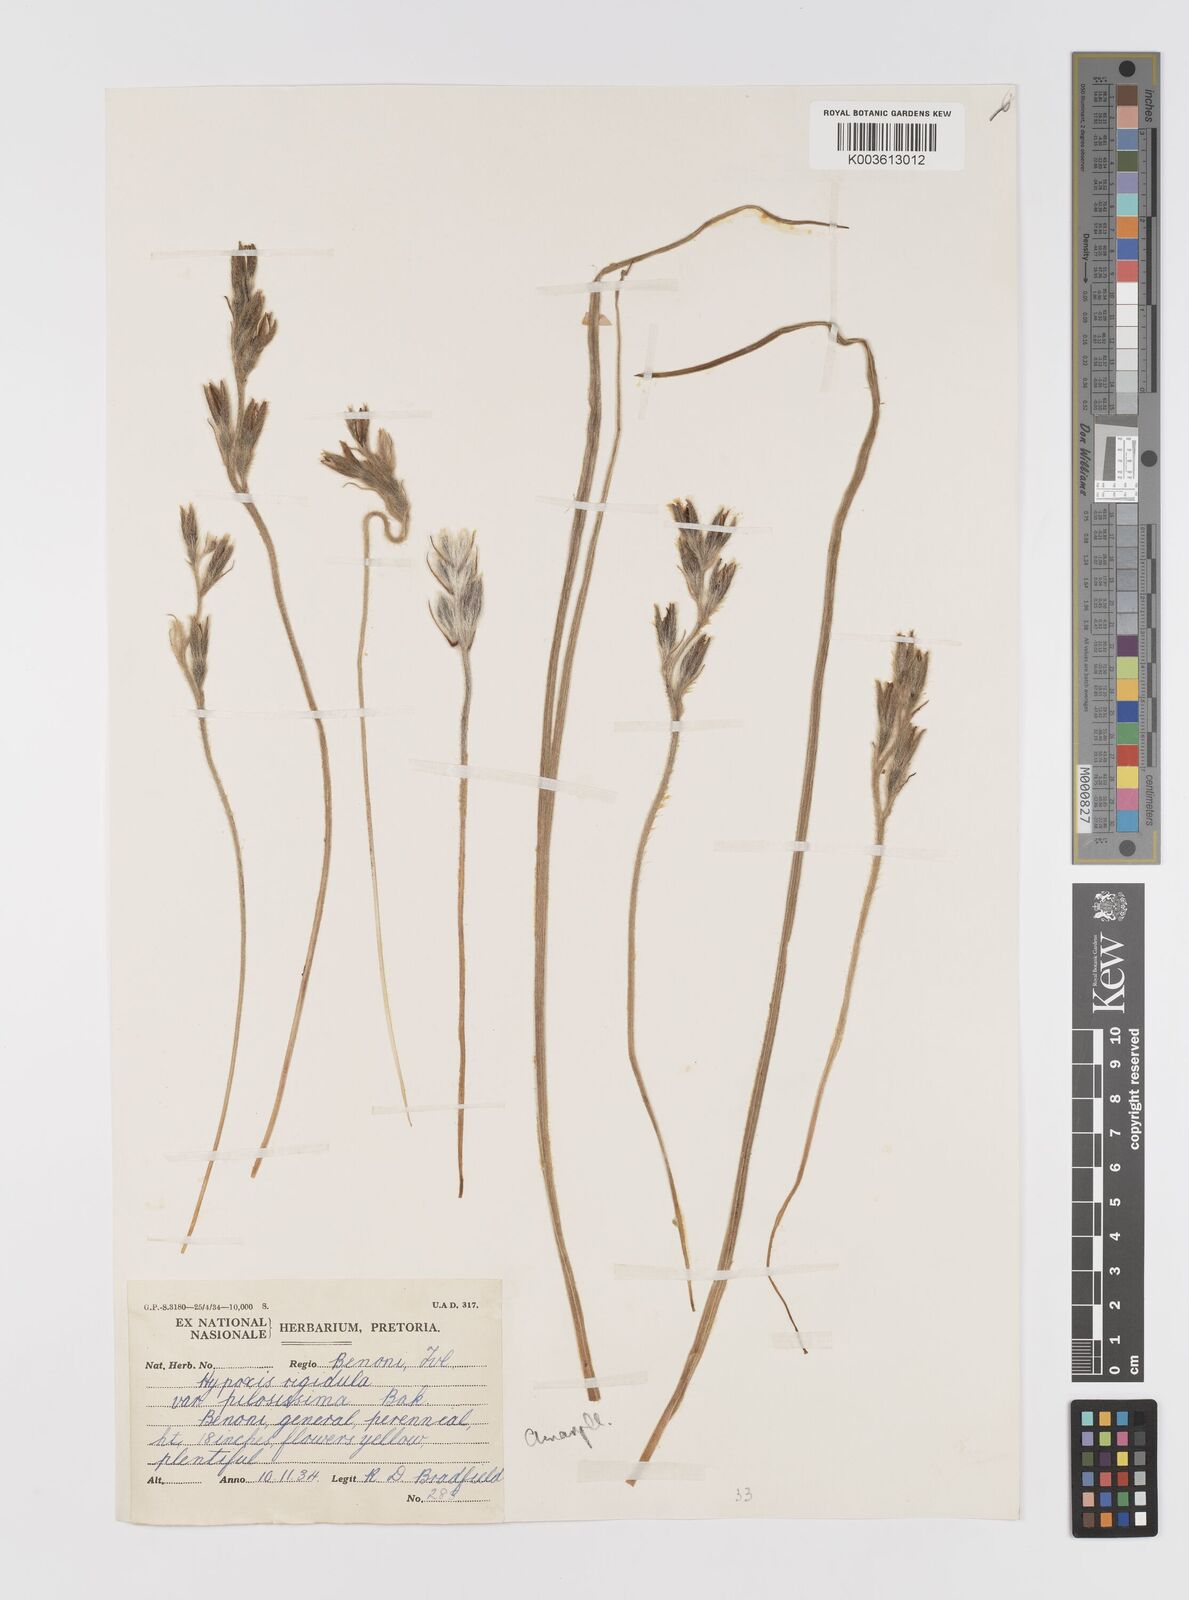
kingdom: Plantae
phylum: Tracheophyta
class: Liliopsida
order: Asparagales
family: Hypoxidaceae
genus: Hypoxis
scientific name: Hypoxis rigidula
